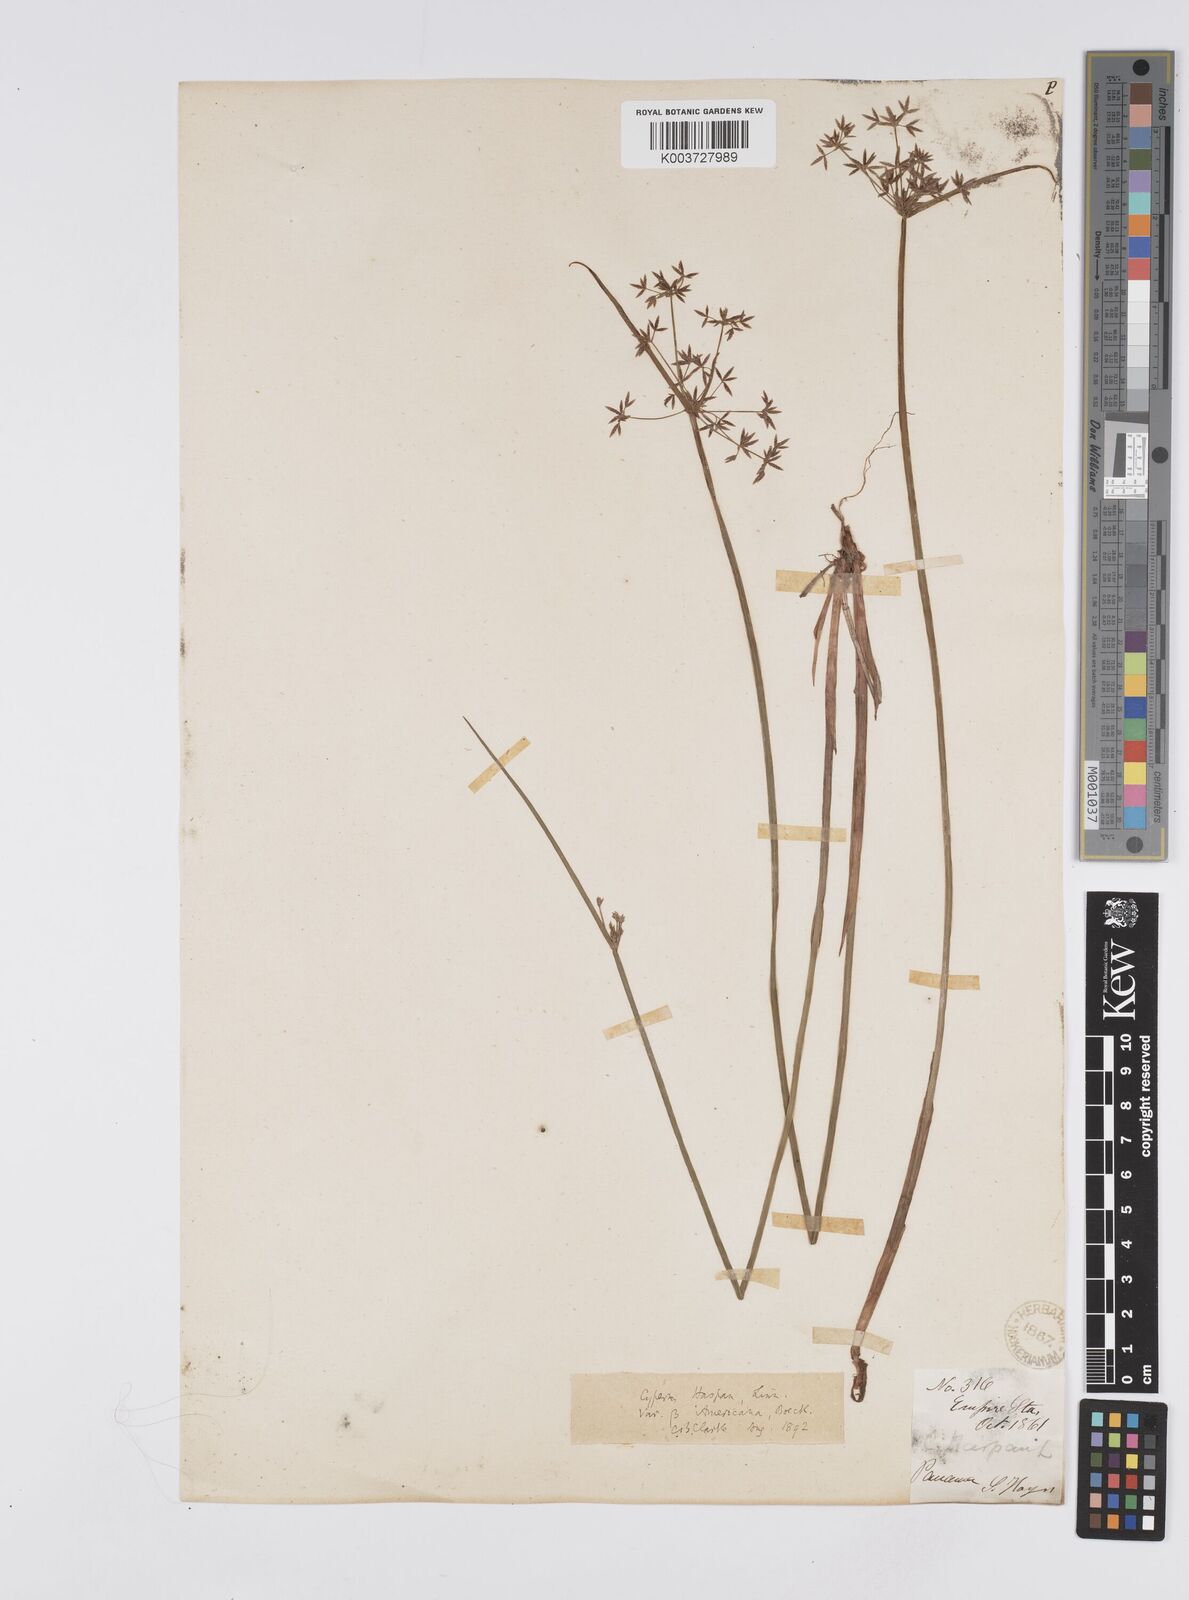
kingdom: Plantae
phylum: Tracheophyta
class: Liliopsida
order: Poales
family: Cyperaceae
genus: Cyperus
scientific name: Cyperus haspan
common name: Haspan flatsedge
